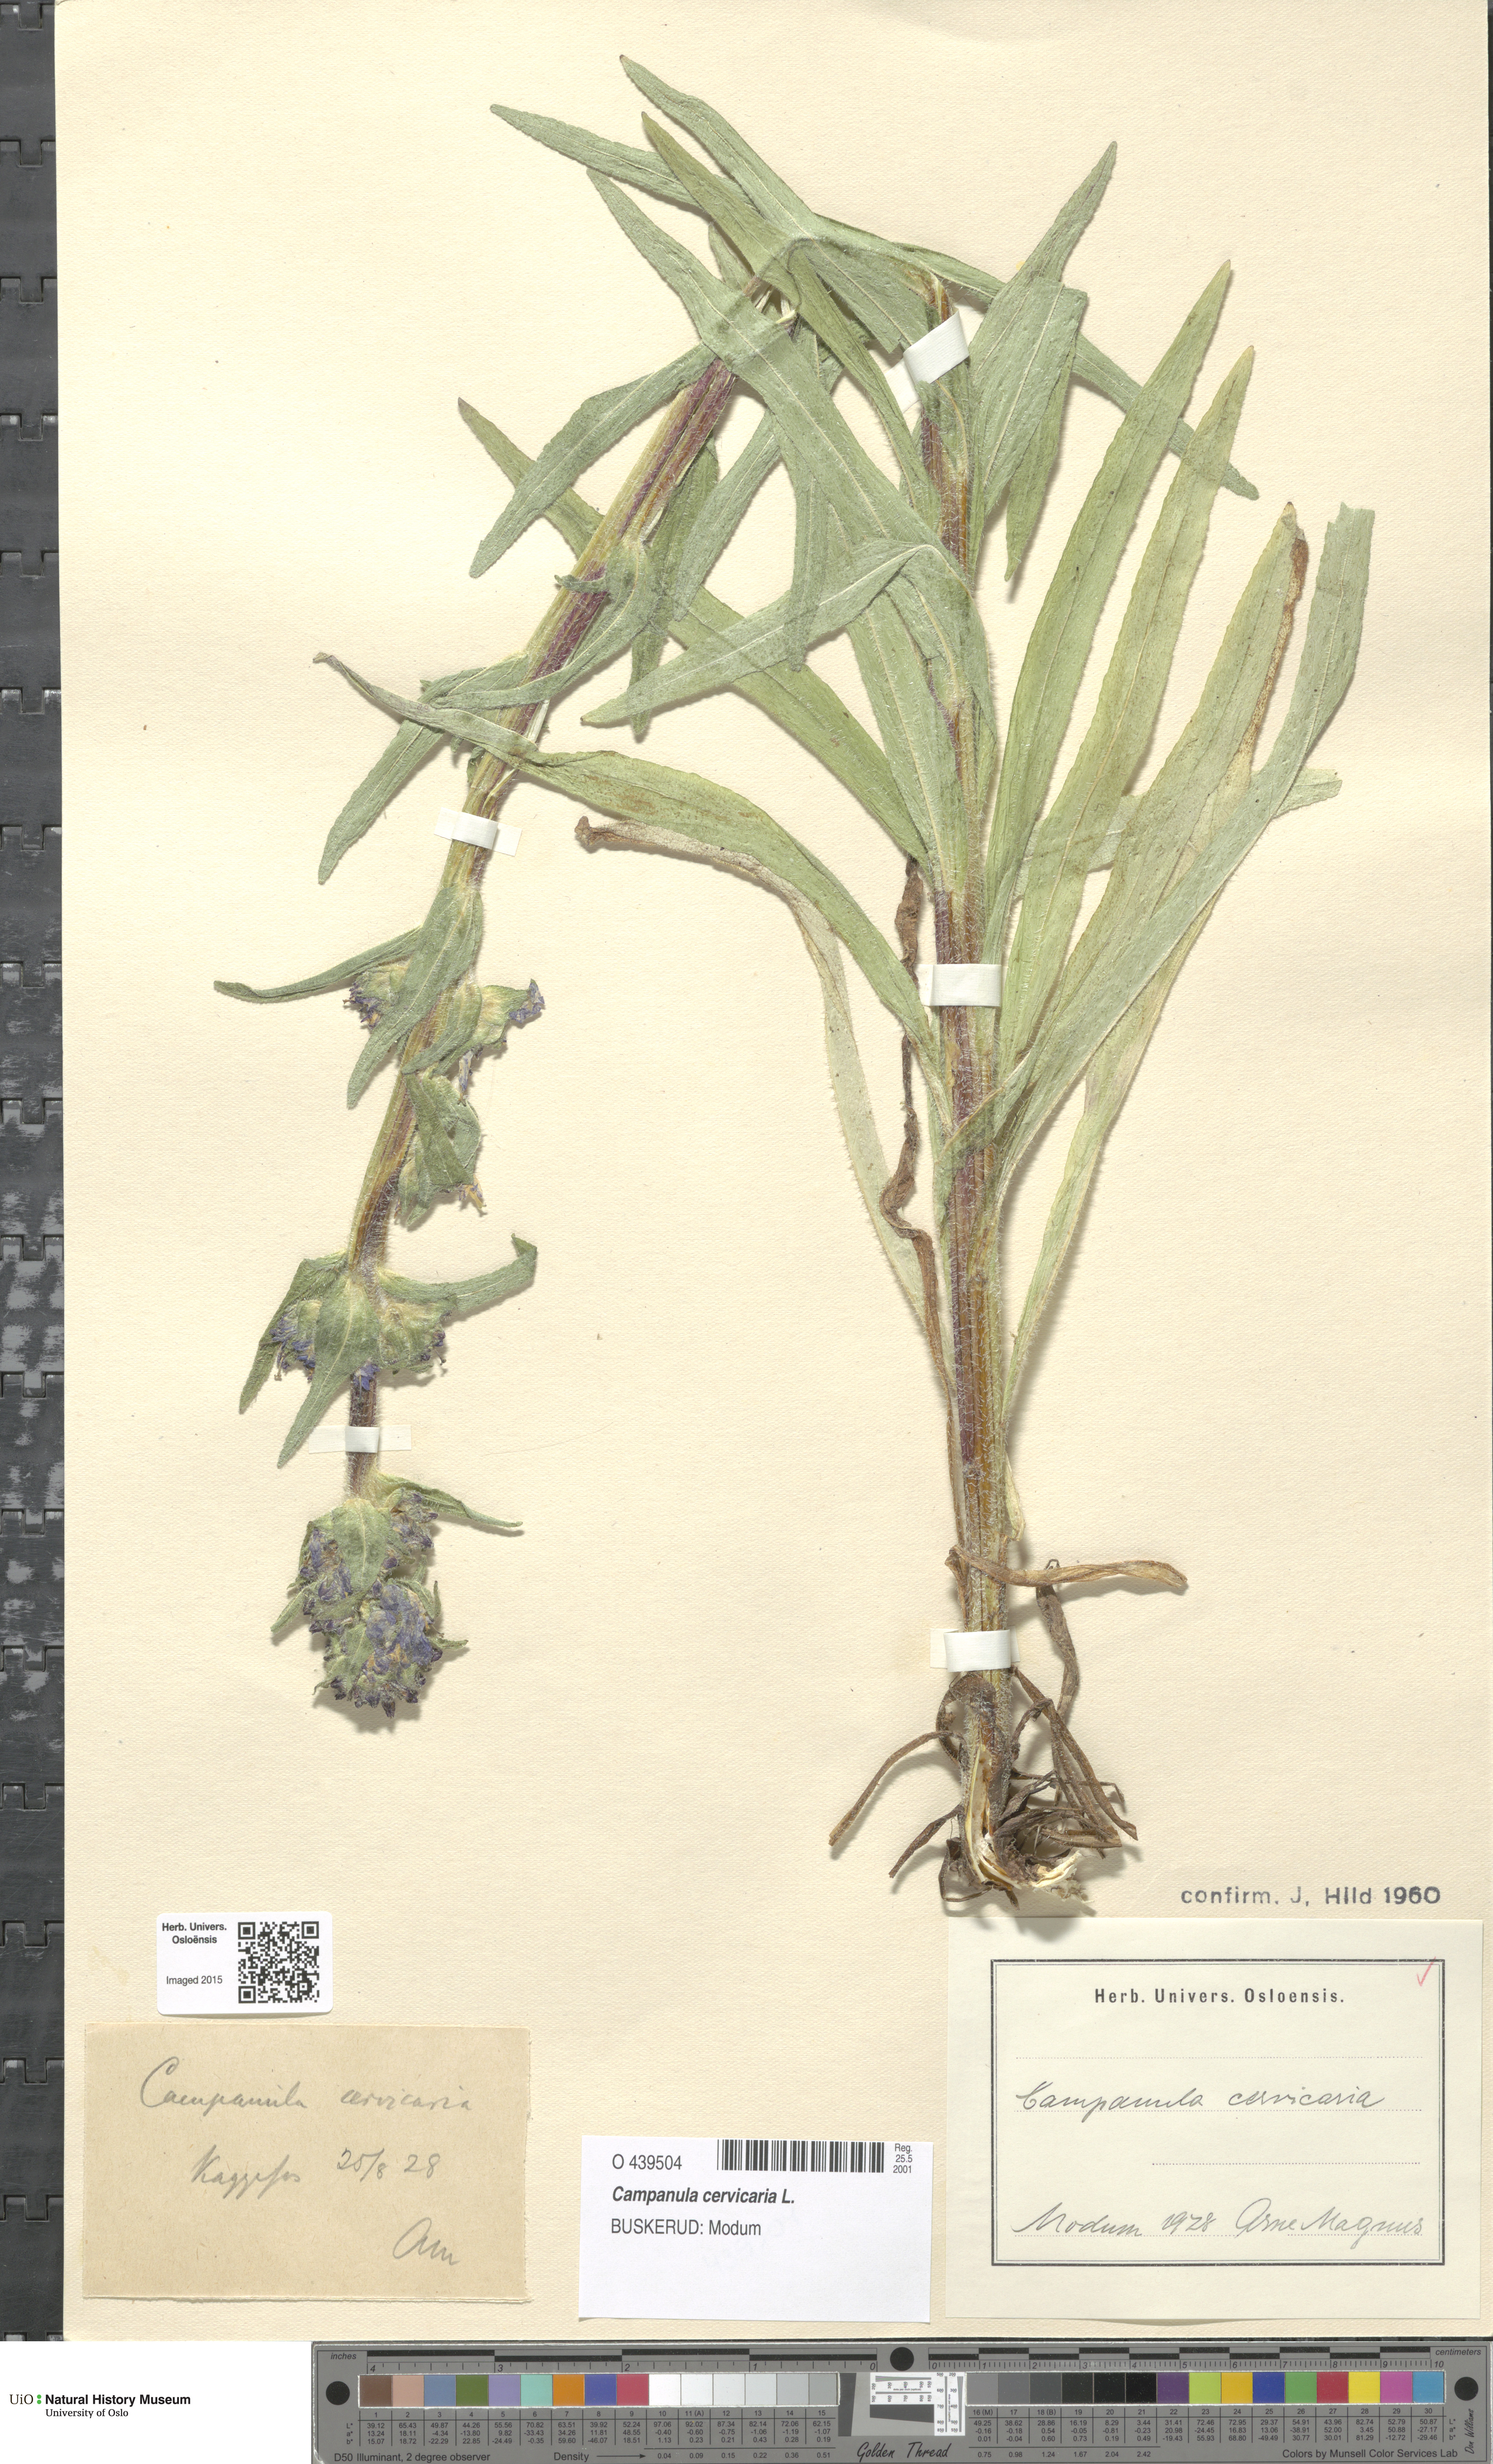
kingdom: Plantae
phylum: Tracheophyta
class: Magnoliopsida
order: Asterales
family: Campanulaceae
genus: Campanula
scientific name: Campanula cervicaria
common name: Bristly bellflower
